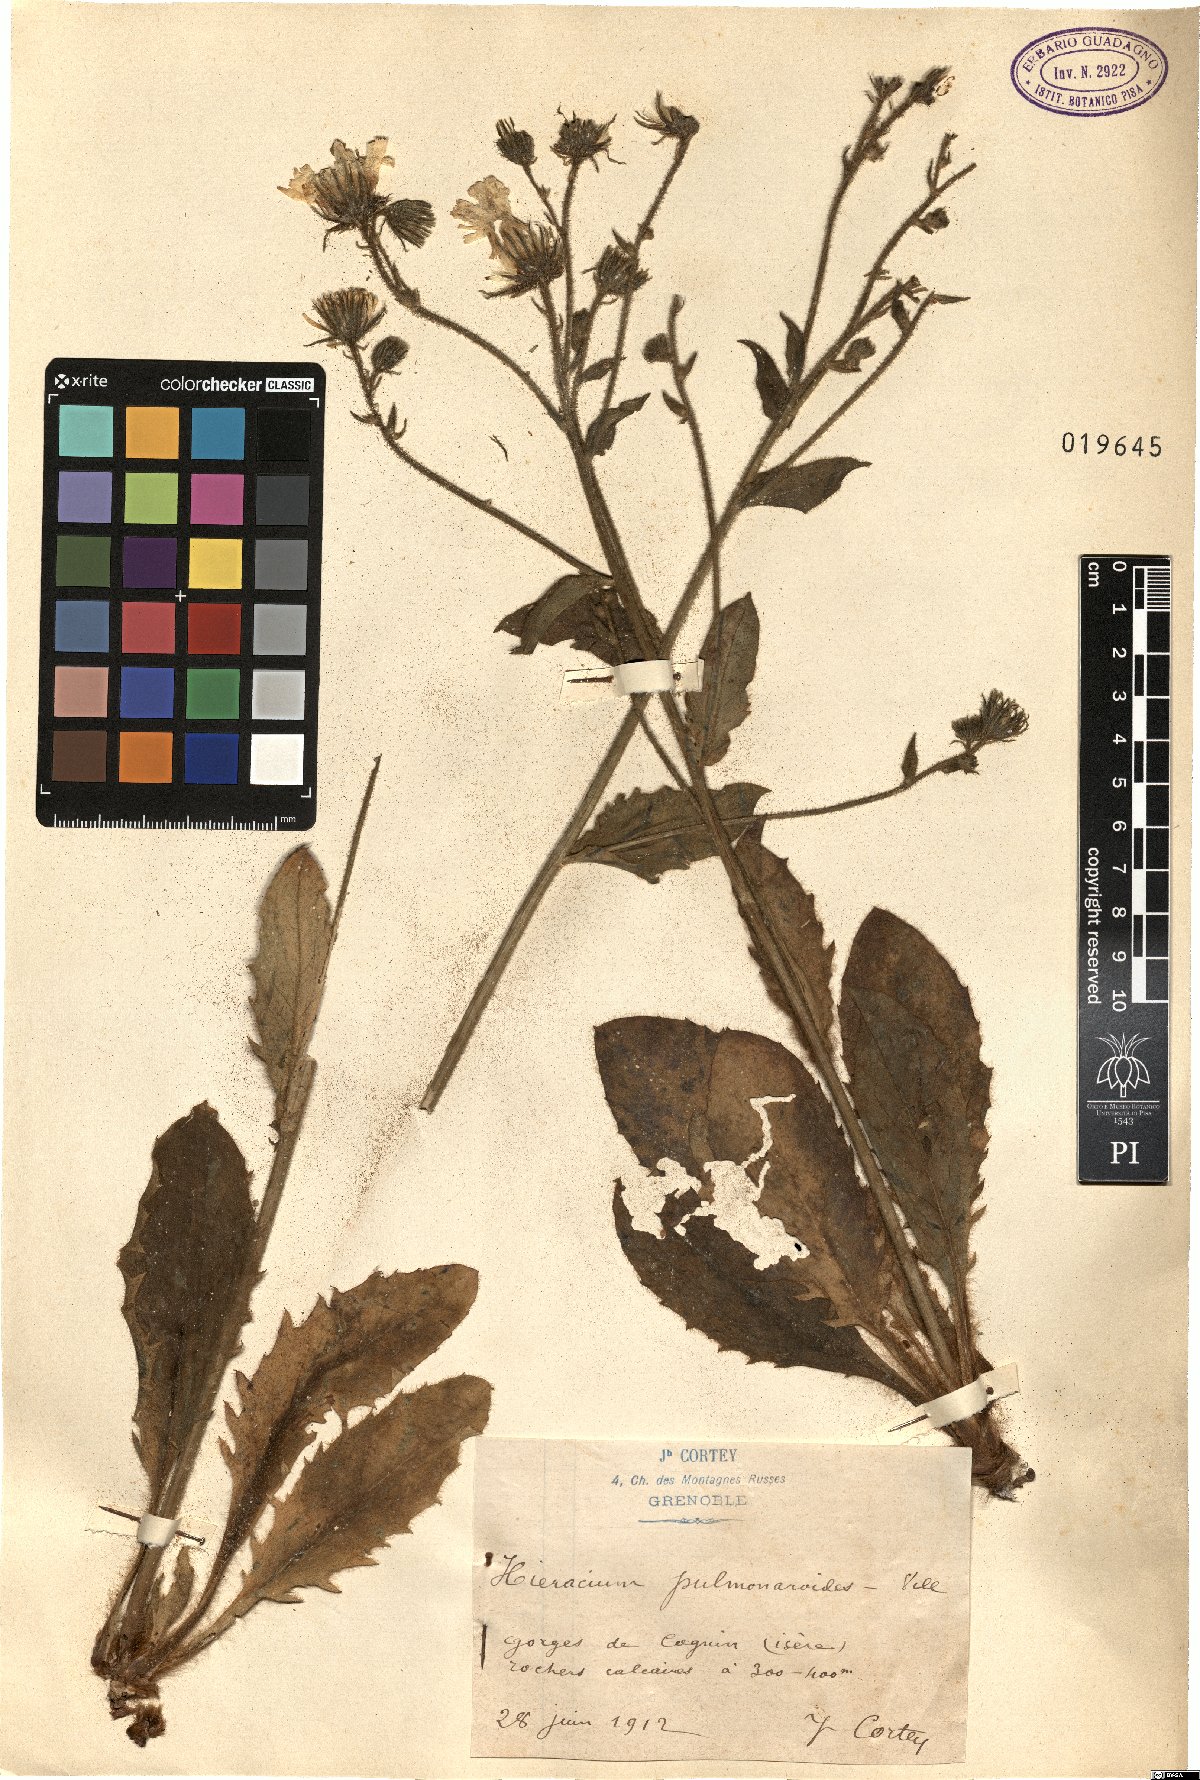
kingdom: Plantae
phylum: Tracheophyta
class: Magnoliopsida
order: Asterales
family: Asteraceae
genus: Hieracium
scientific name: Hieracium pulmonarioides
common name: Wall hawkweed
